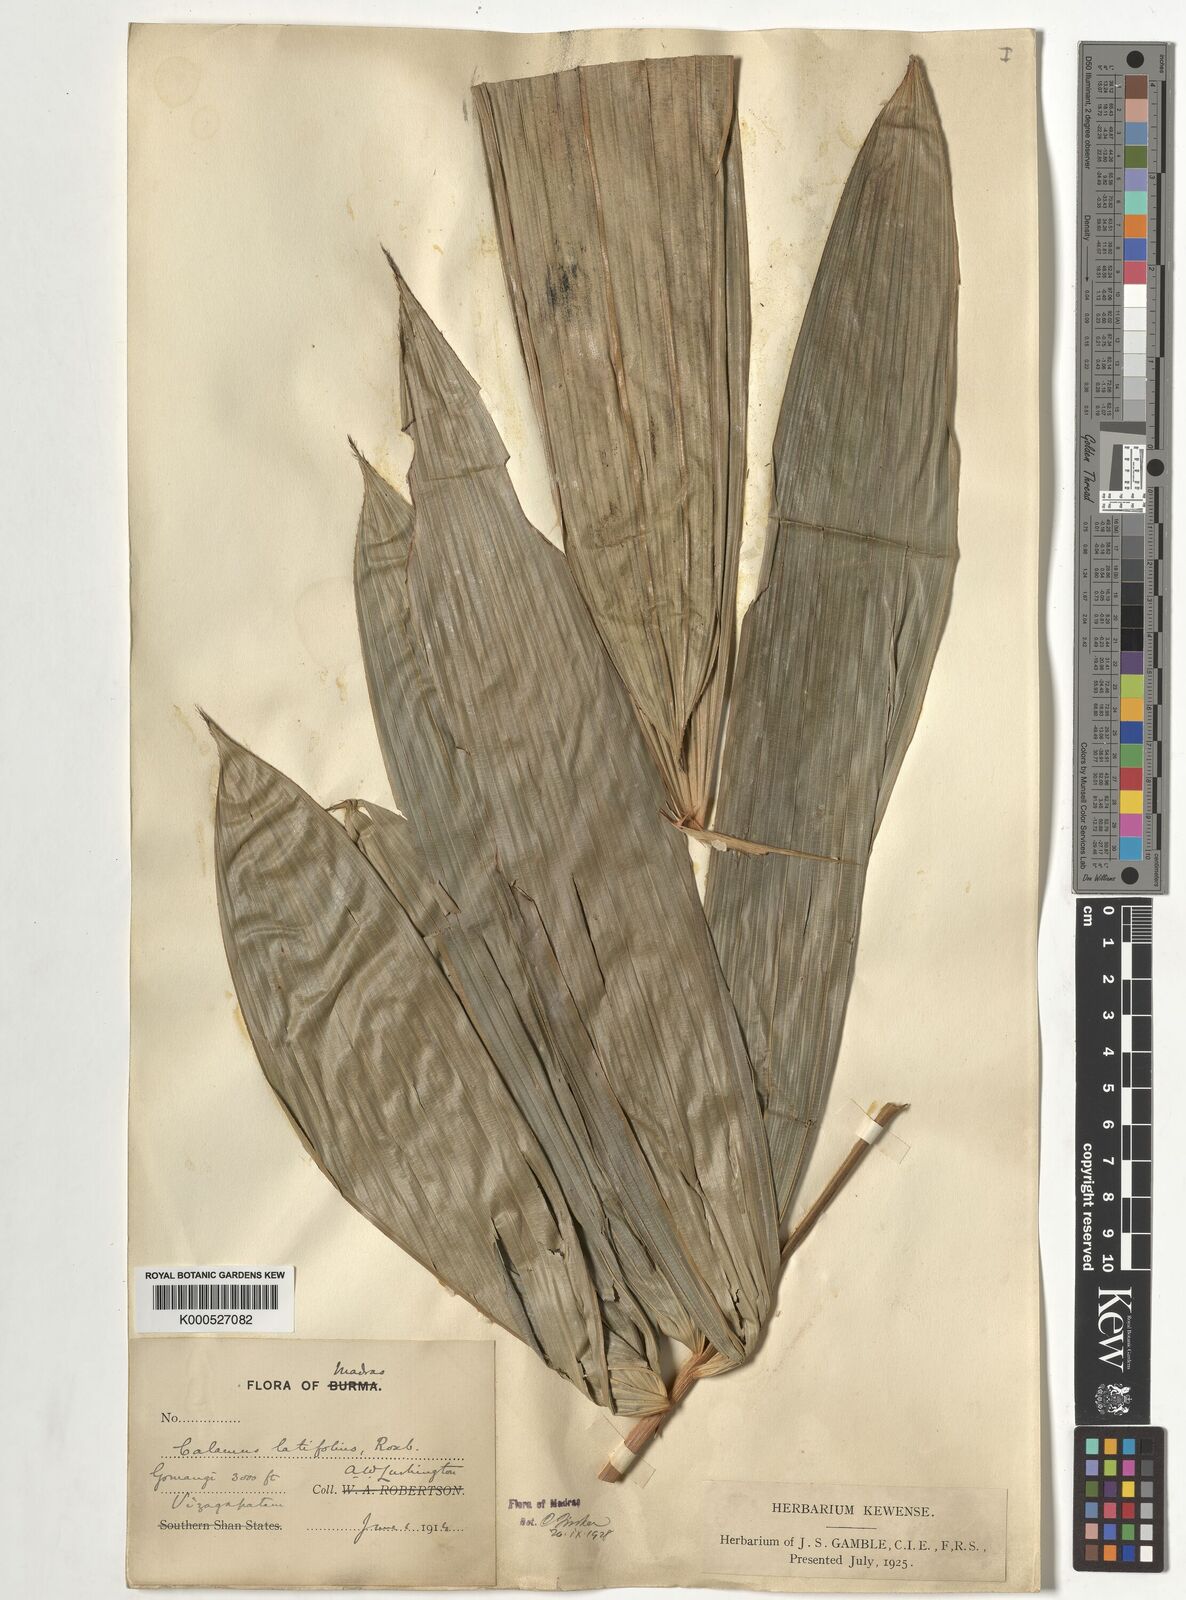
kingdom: Plantae
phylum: Tracheophyta
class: Liliopsida
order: Arecales
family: Arecaceae
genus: Calamus
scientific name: Calamus latifolius
